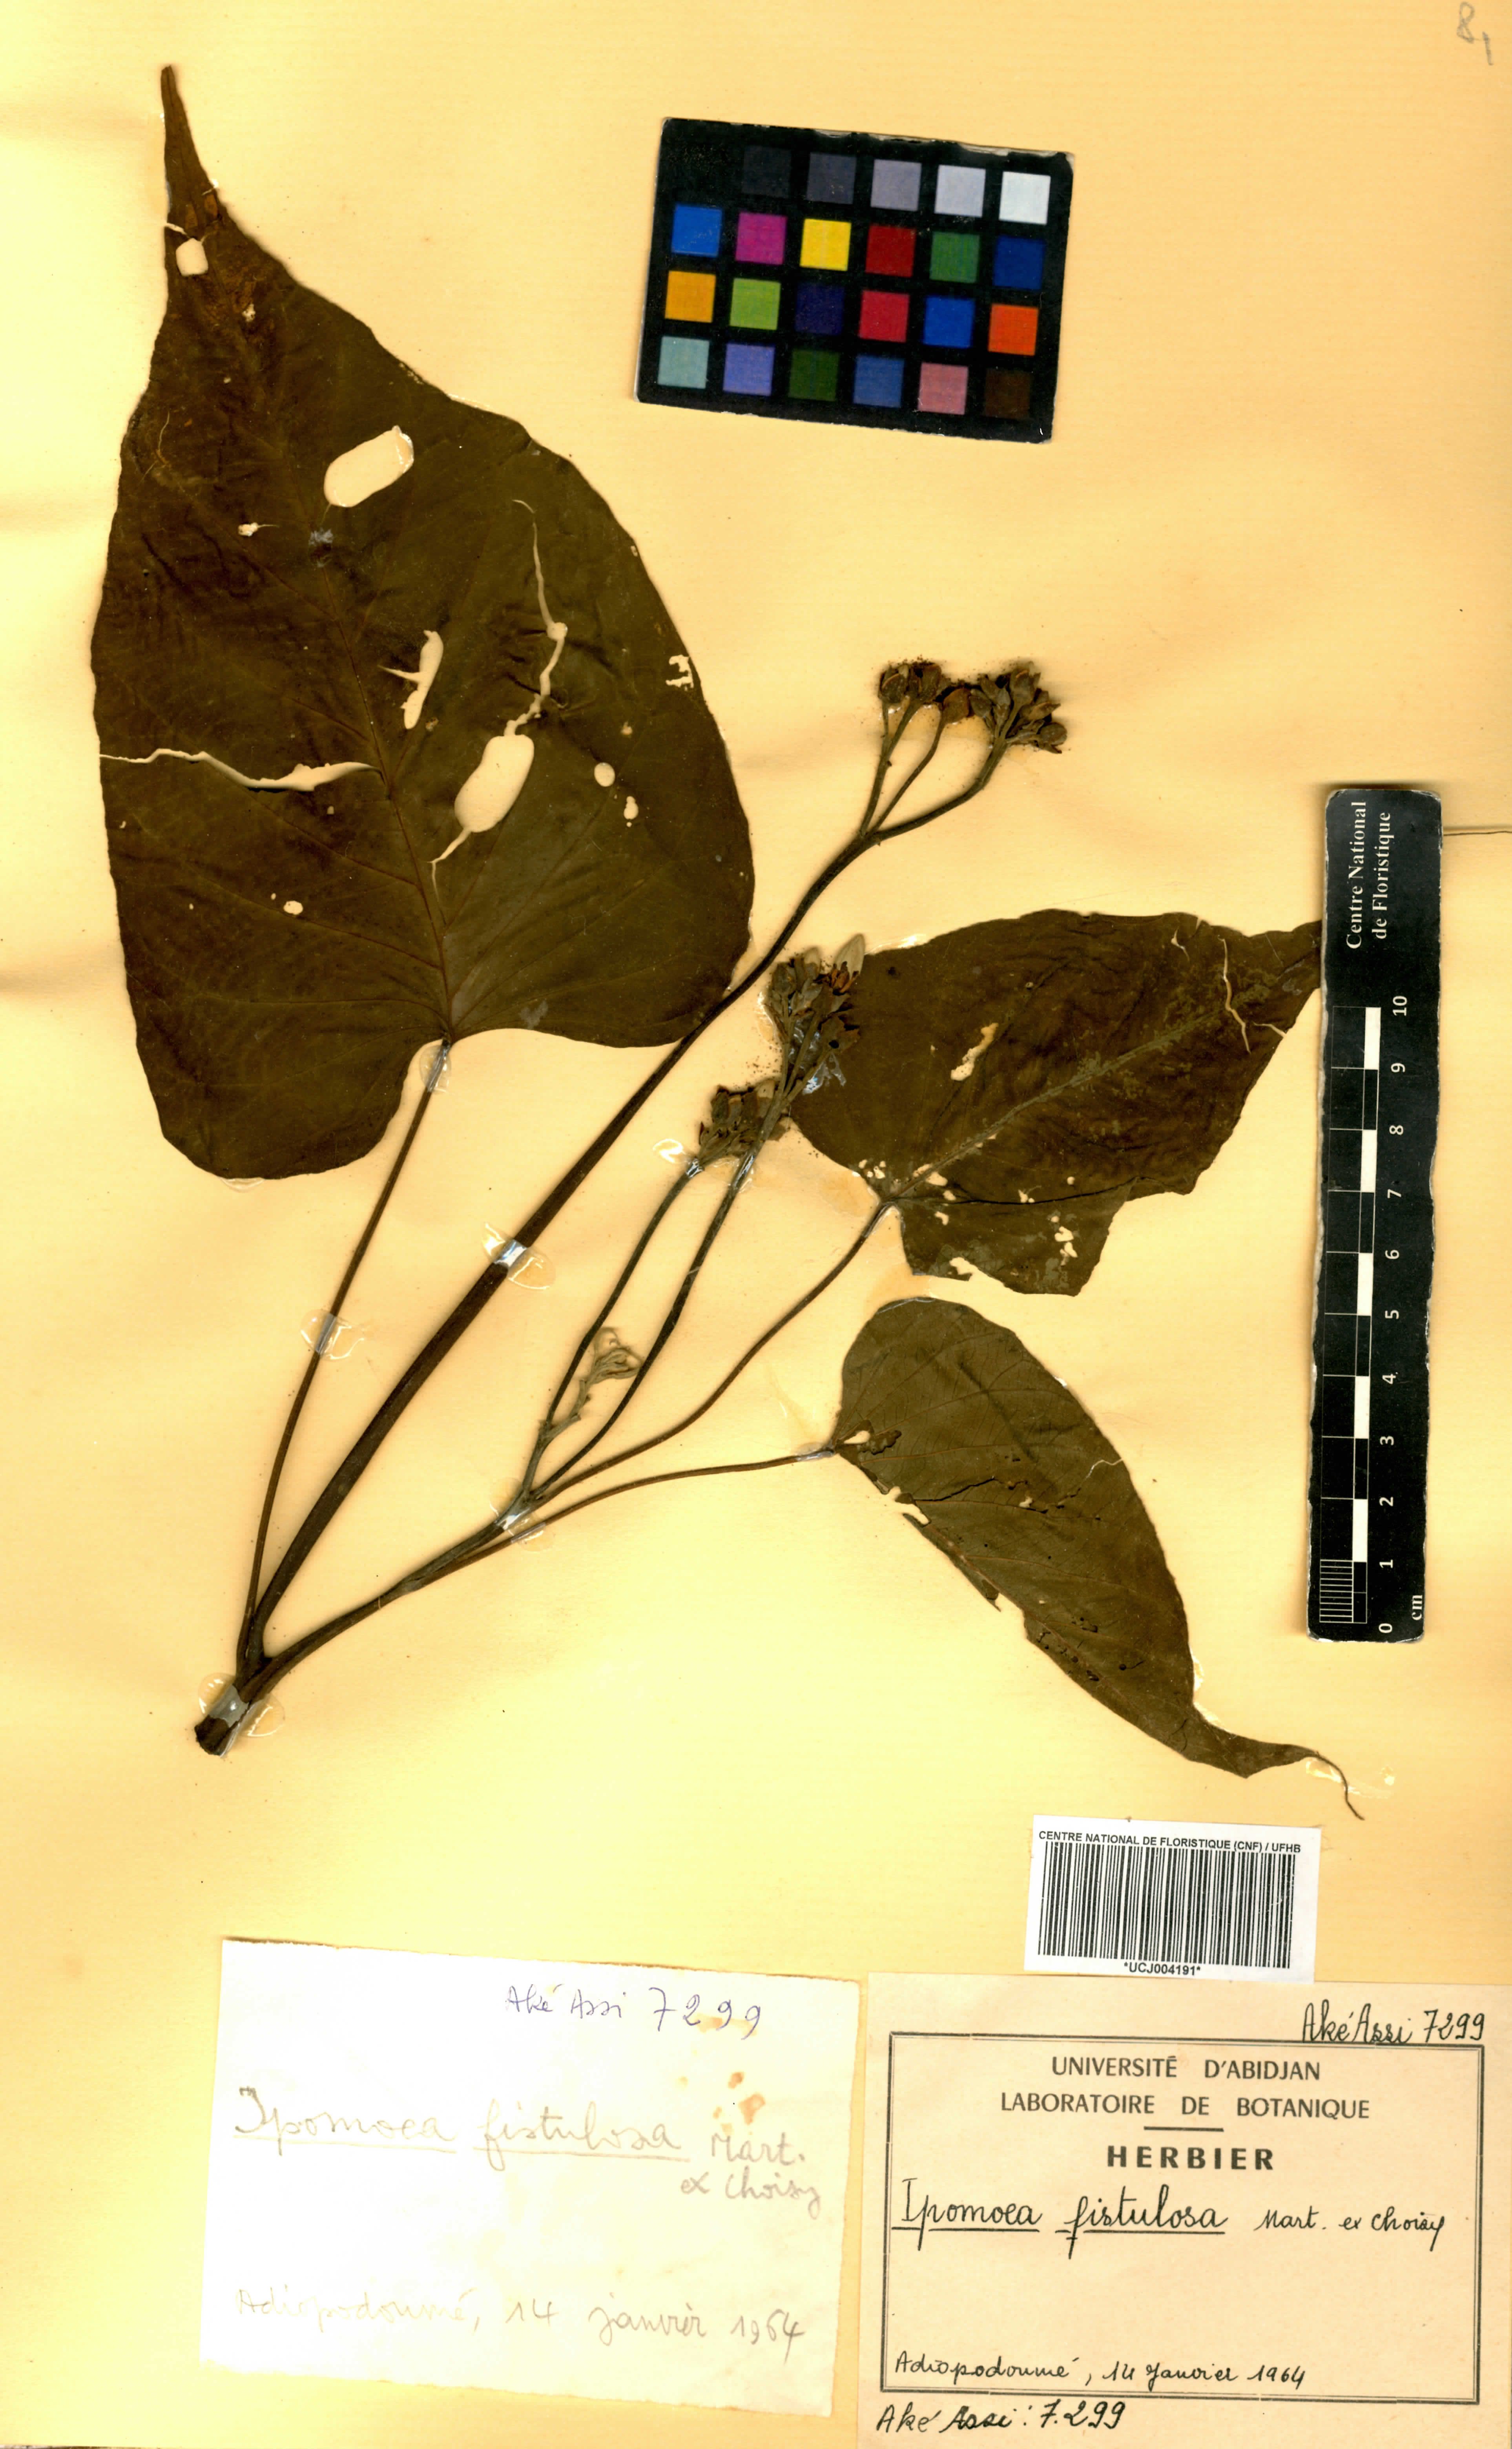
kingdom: Plantae
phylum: Tracheophyta
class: Magnoliopsida
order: Solanales
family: Convolvulaceae
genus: Ipomoea
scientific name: Ipomoea carnea
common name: Morning-glory
